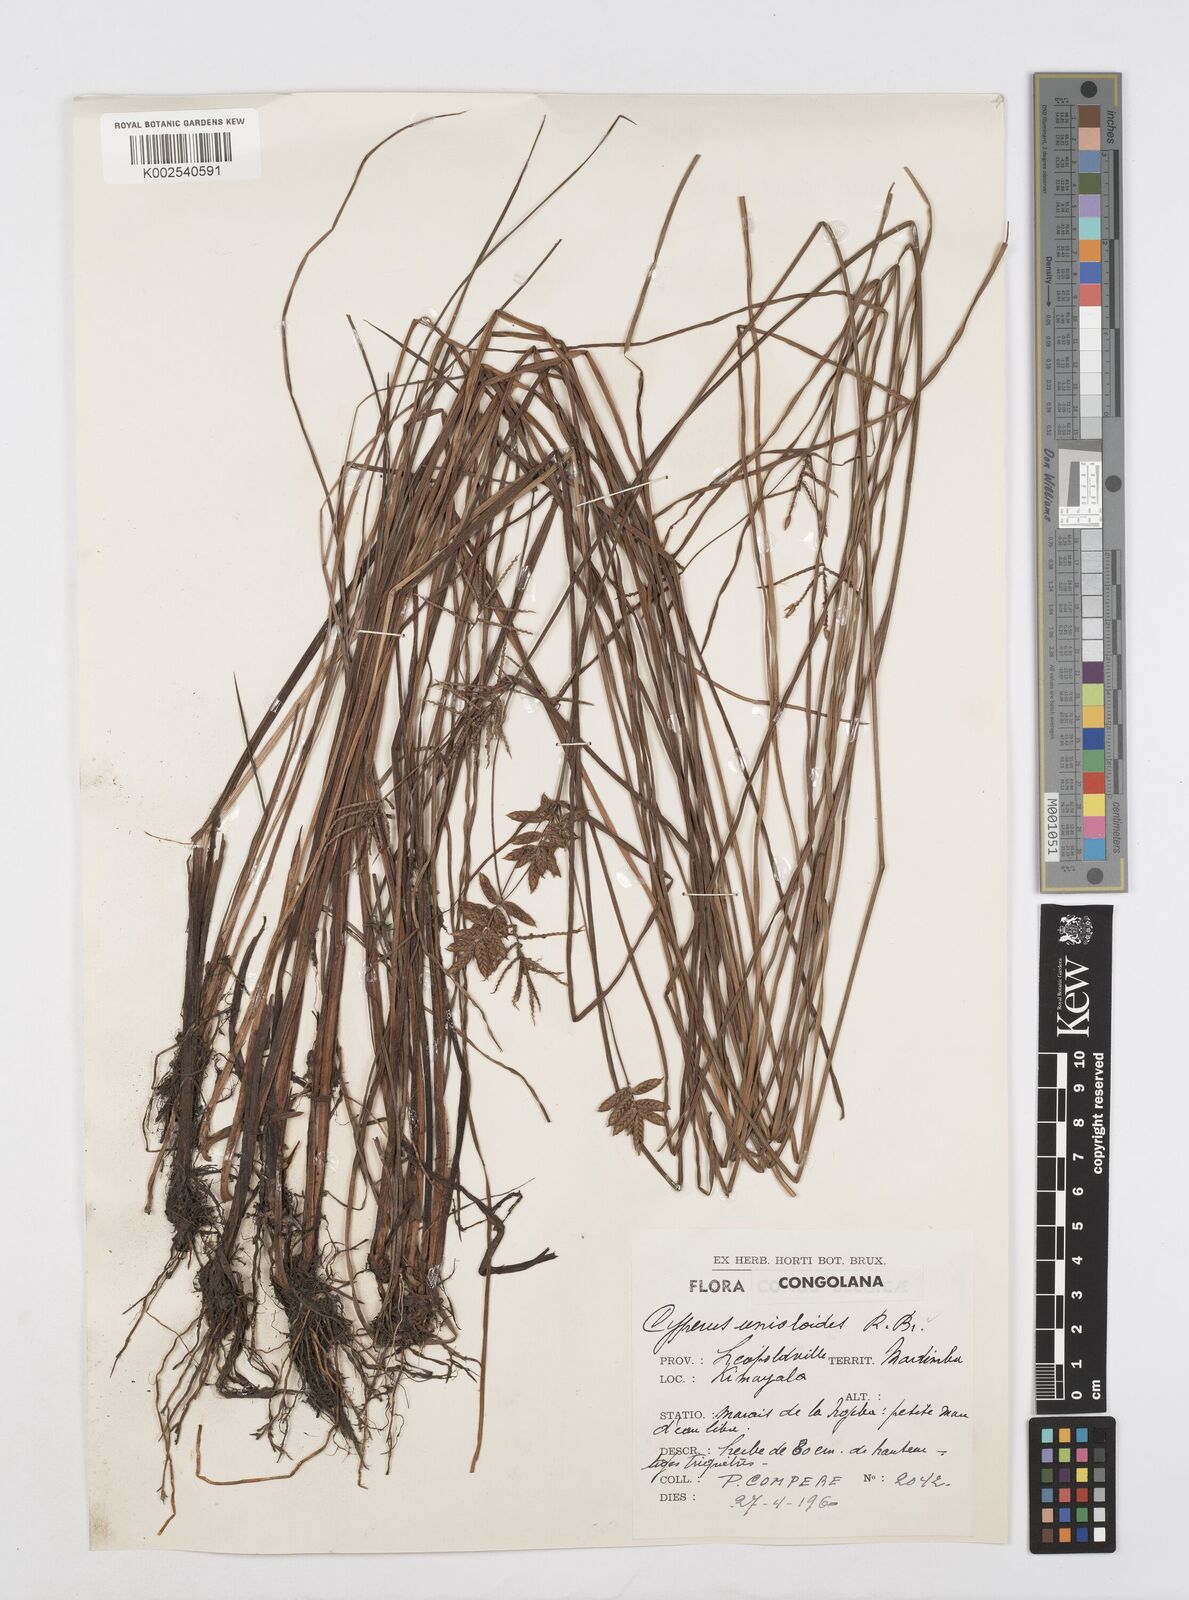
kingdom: Plantae
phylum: Tracheophyta
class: Liliopsida
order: Poales
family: Cyperaceae
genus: Cyperus
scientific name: Cyperus unioloides
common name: Uniola flatsedge
